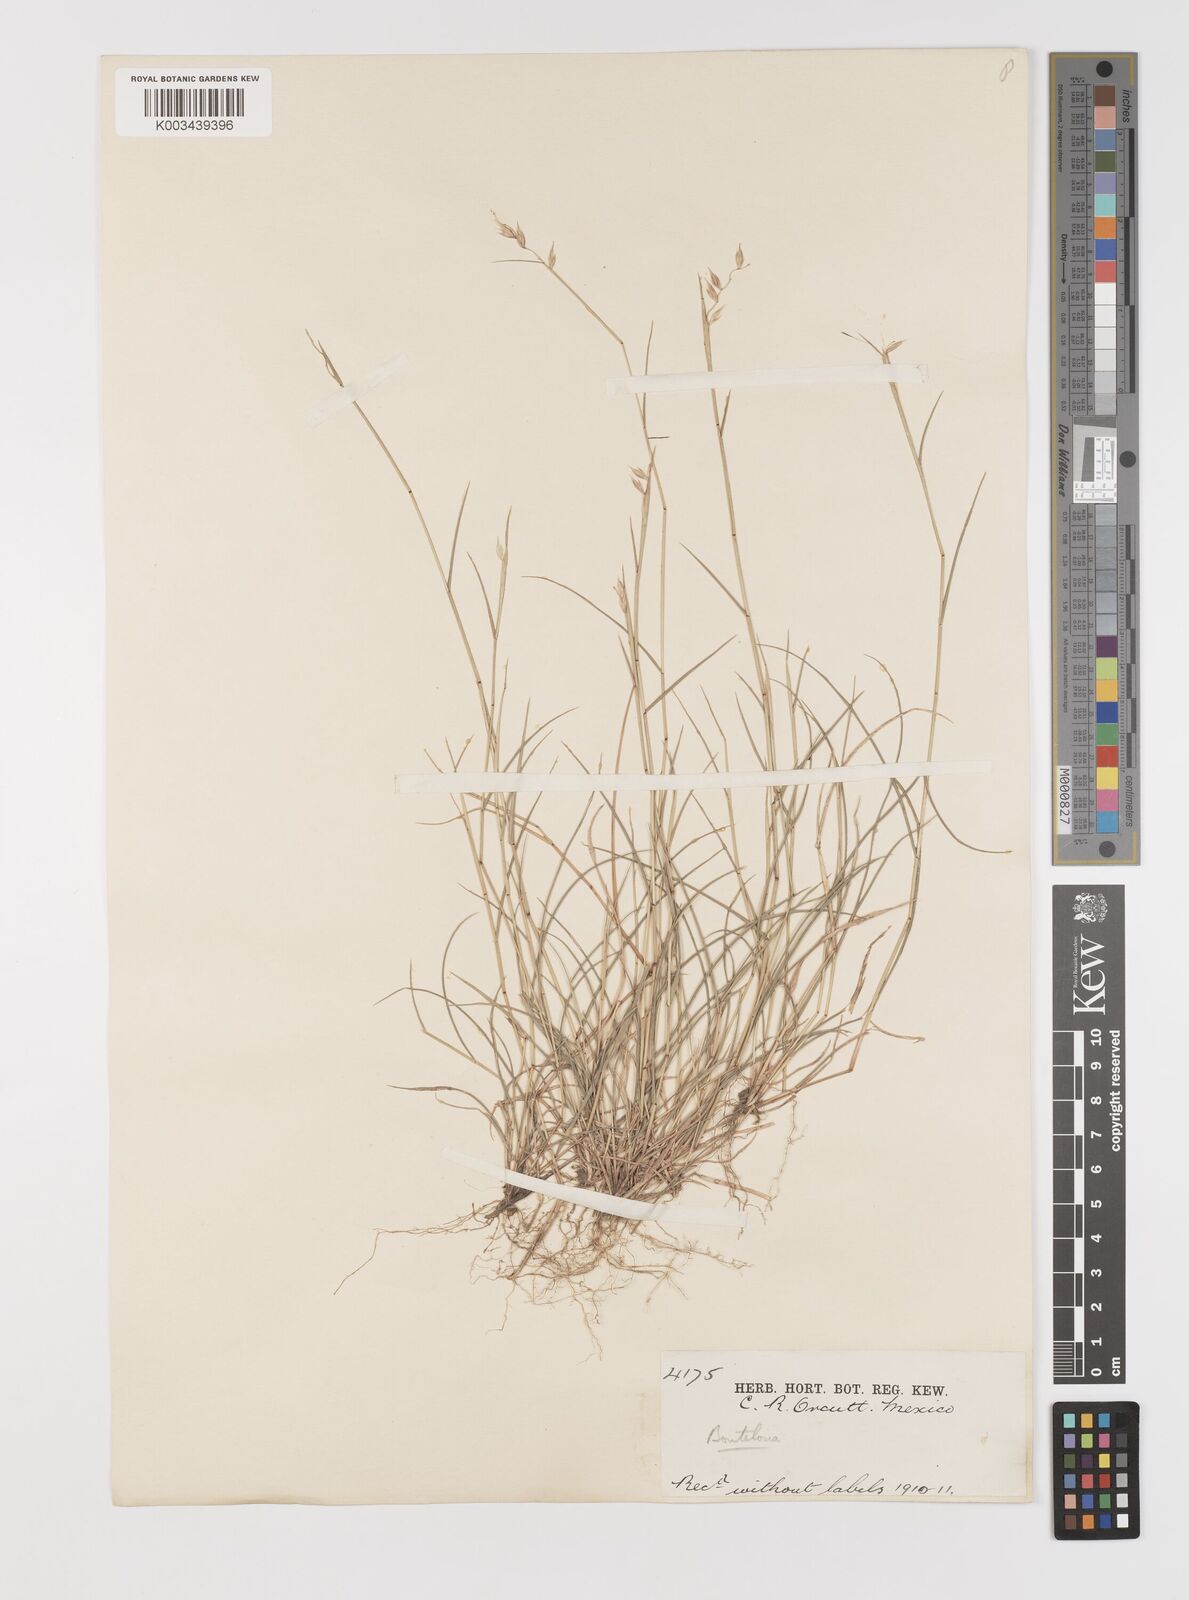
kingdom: Plantae
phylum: Tracheophyta
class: Liliopsida
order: Poales
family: Poaceae
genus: Bouteloua
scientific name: Bouteloua chondrosioides
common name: Sprucetop grama
